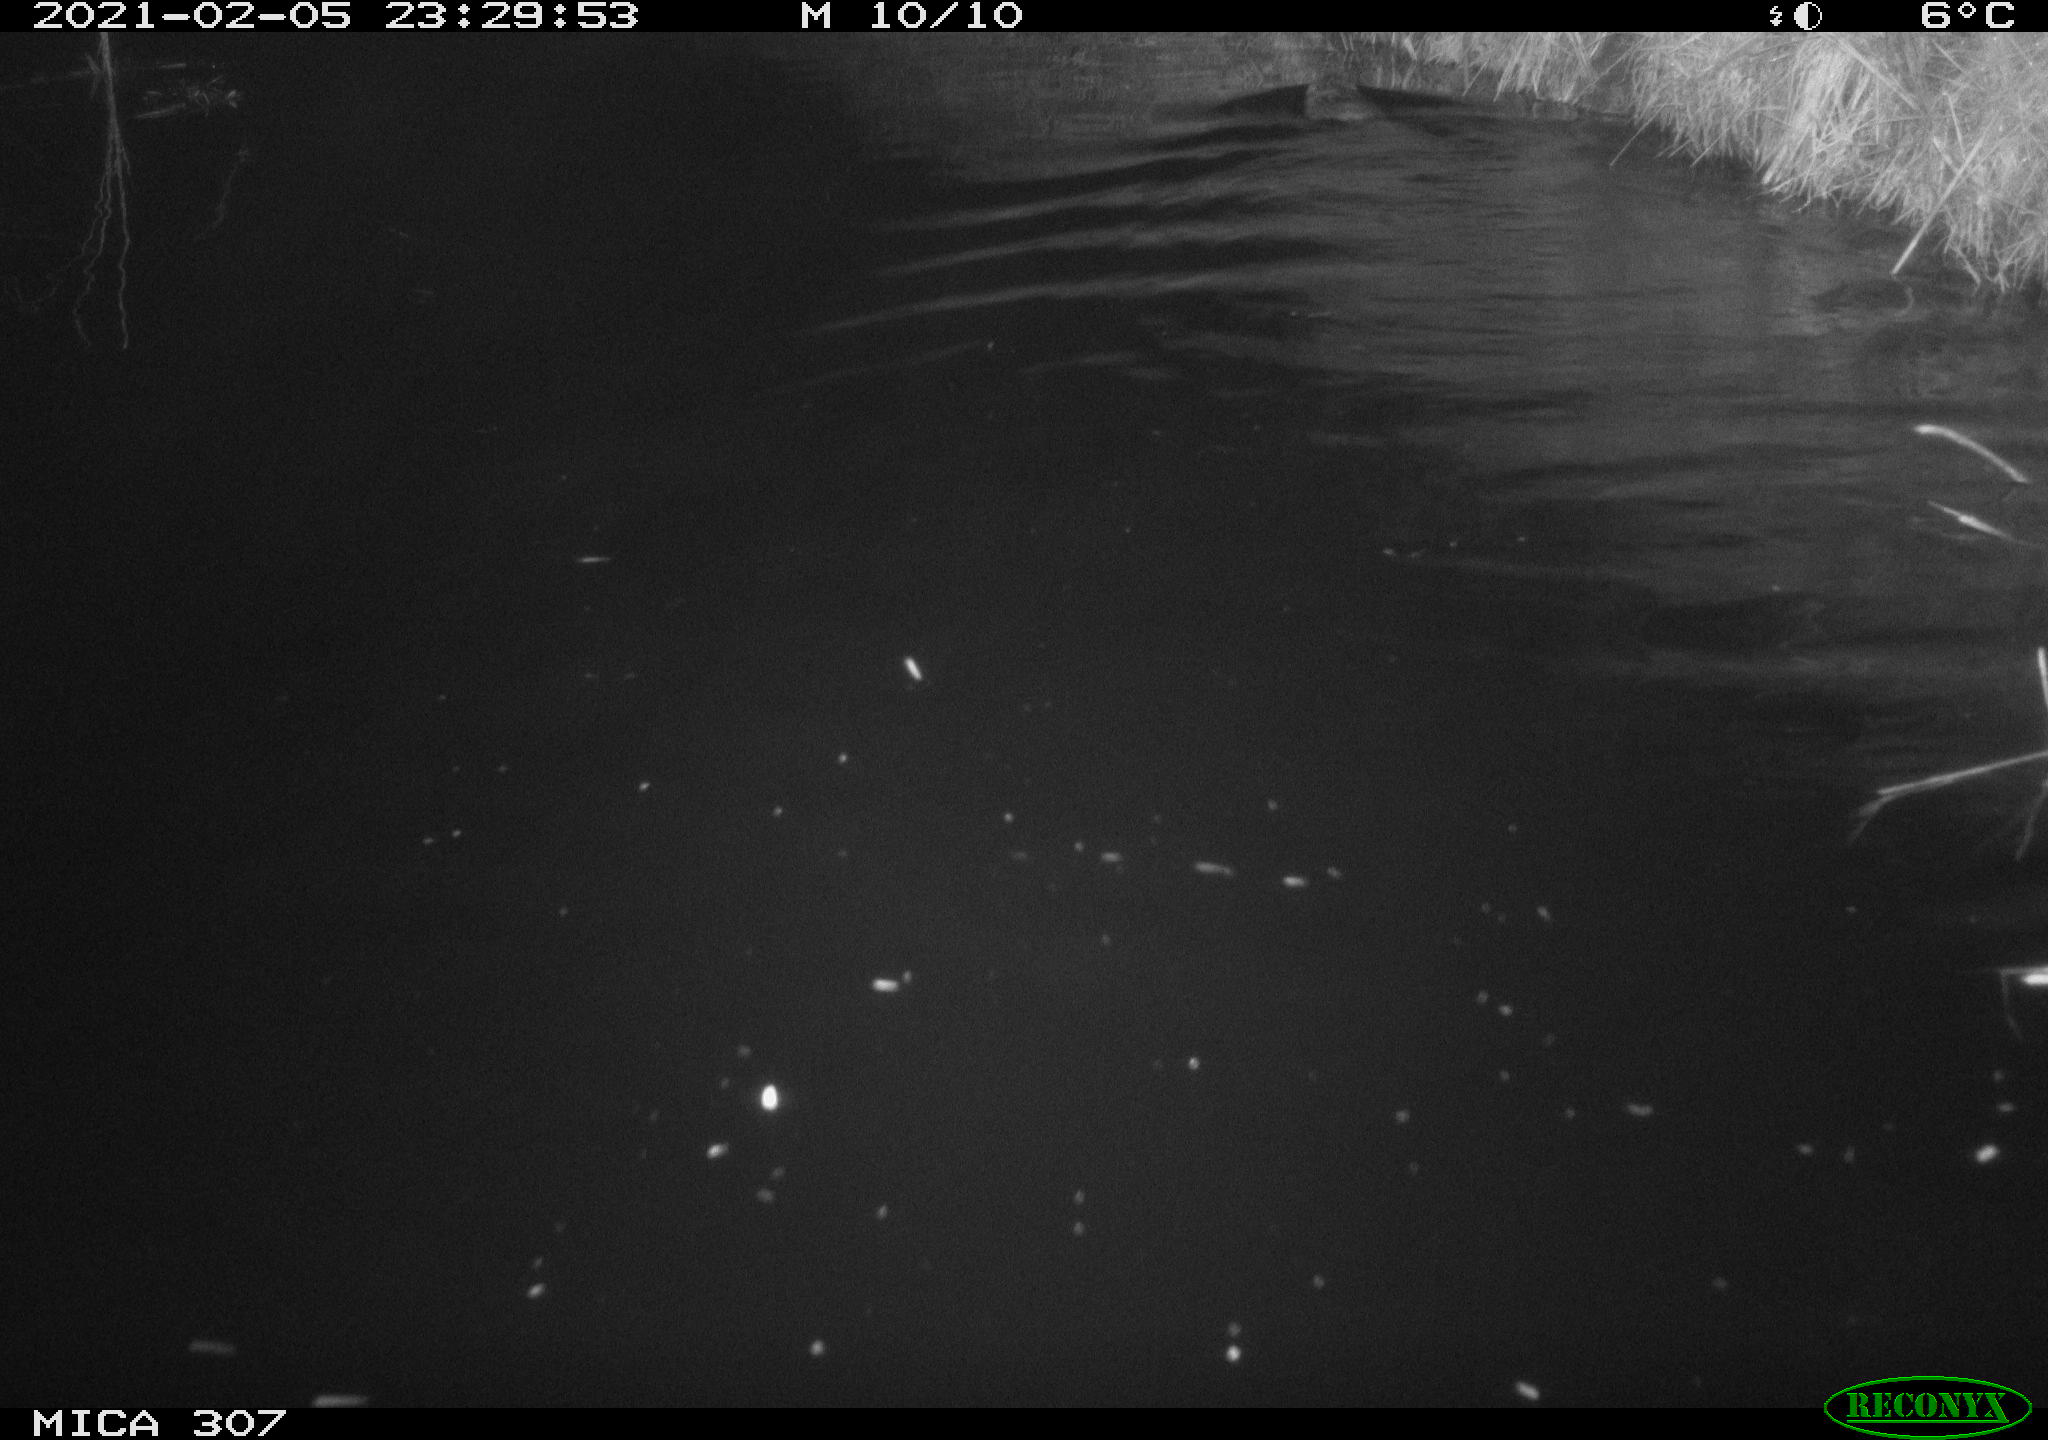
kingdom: Animalia
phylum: Chordata
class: Mammalia
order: Rodentia
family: Cricetidae
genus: Ondatra
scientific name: Ondatra zibethicus
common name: Muskrat
